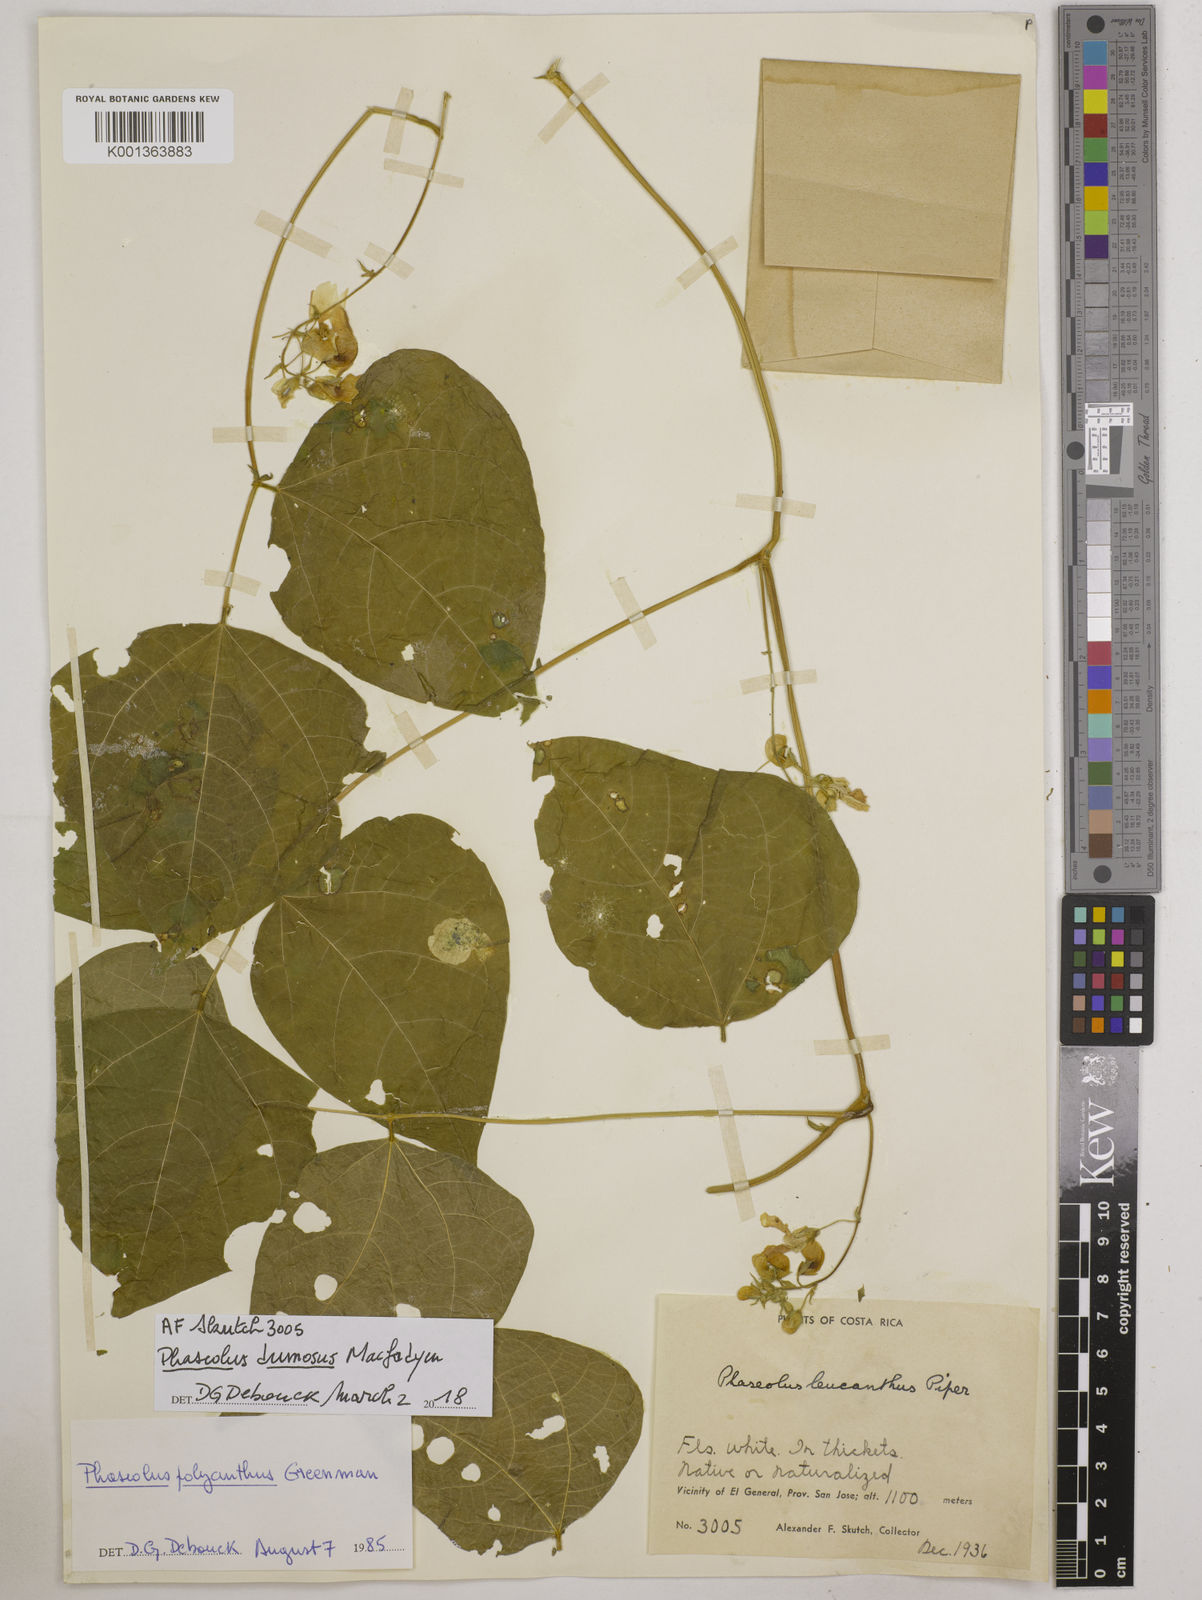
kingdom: Plantae
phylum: Tracheophyta
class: Magnoliopsida
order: Fabales
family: Fabaceae
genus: Phaseolus
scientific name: Phaseolus dumosus
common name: Year bean
